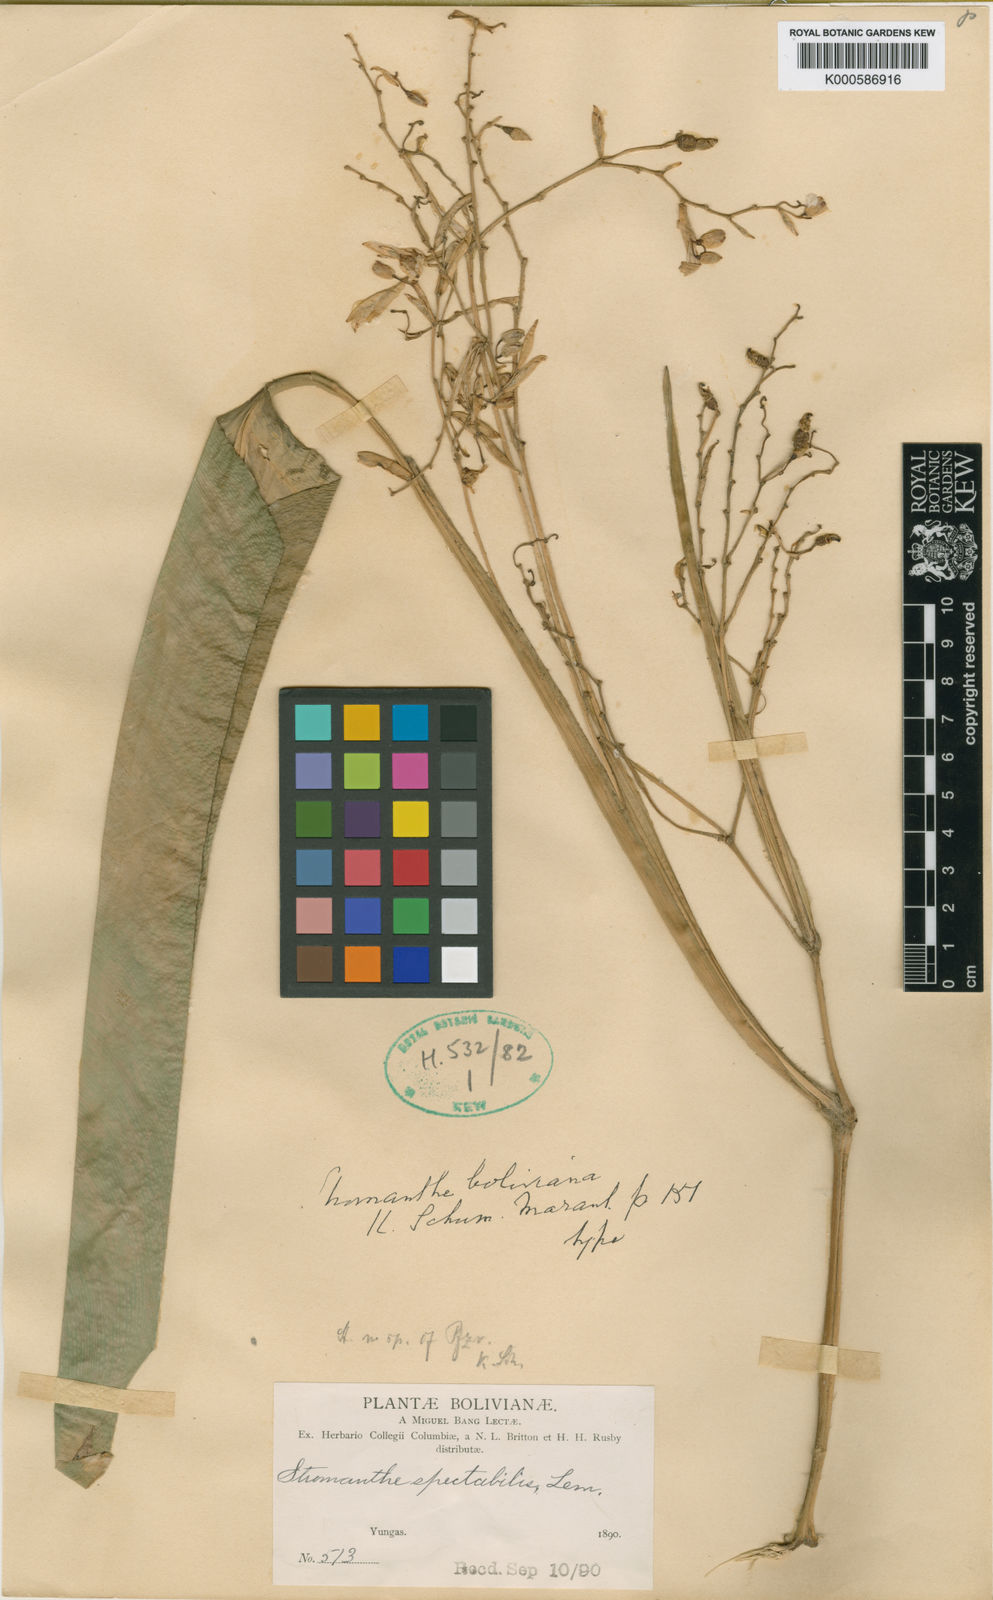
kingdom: Plantae
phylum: Tracheophyta
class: Liliopsida
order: Zingiberales
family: Marantaceae
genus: Stromanthe
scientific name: Stromanthe boliviana
